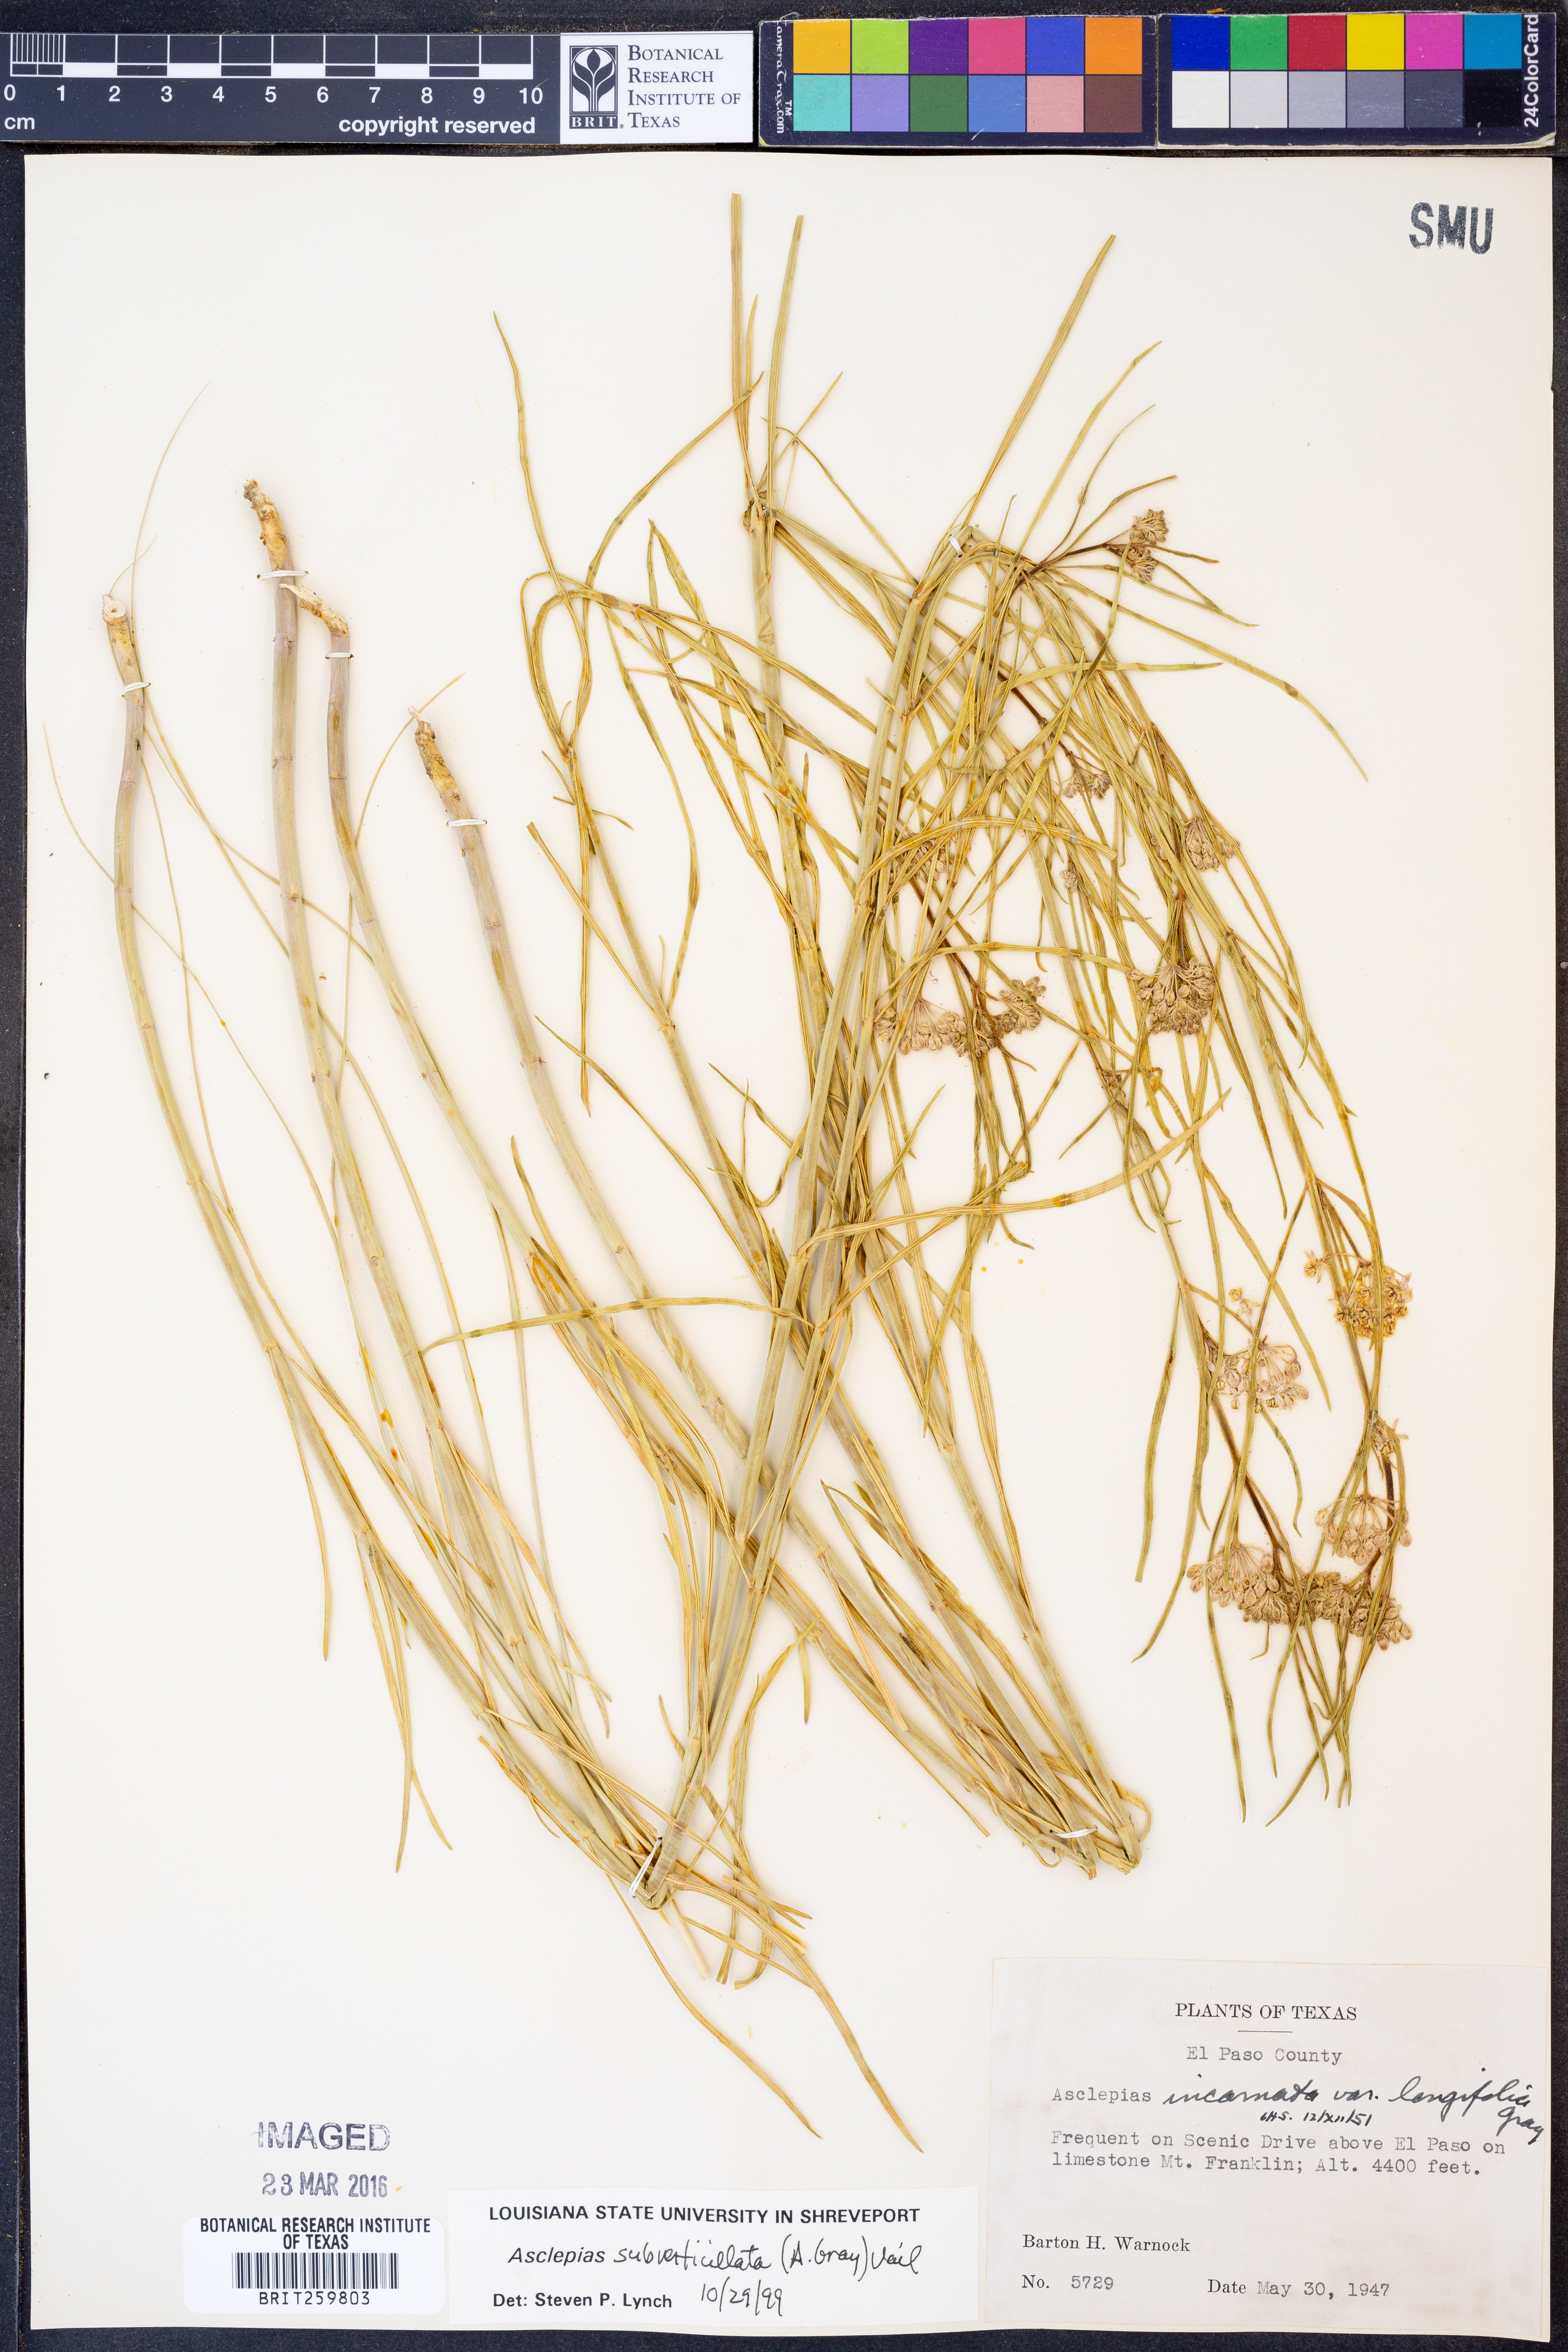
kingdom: Plantae
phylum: Tracheophyta
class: Magnoliopsida
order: Gentianales
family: Apocynaceae
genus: Asclepias
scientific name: Asclepias subverticillata
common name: Horsetail milkweed
